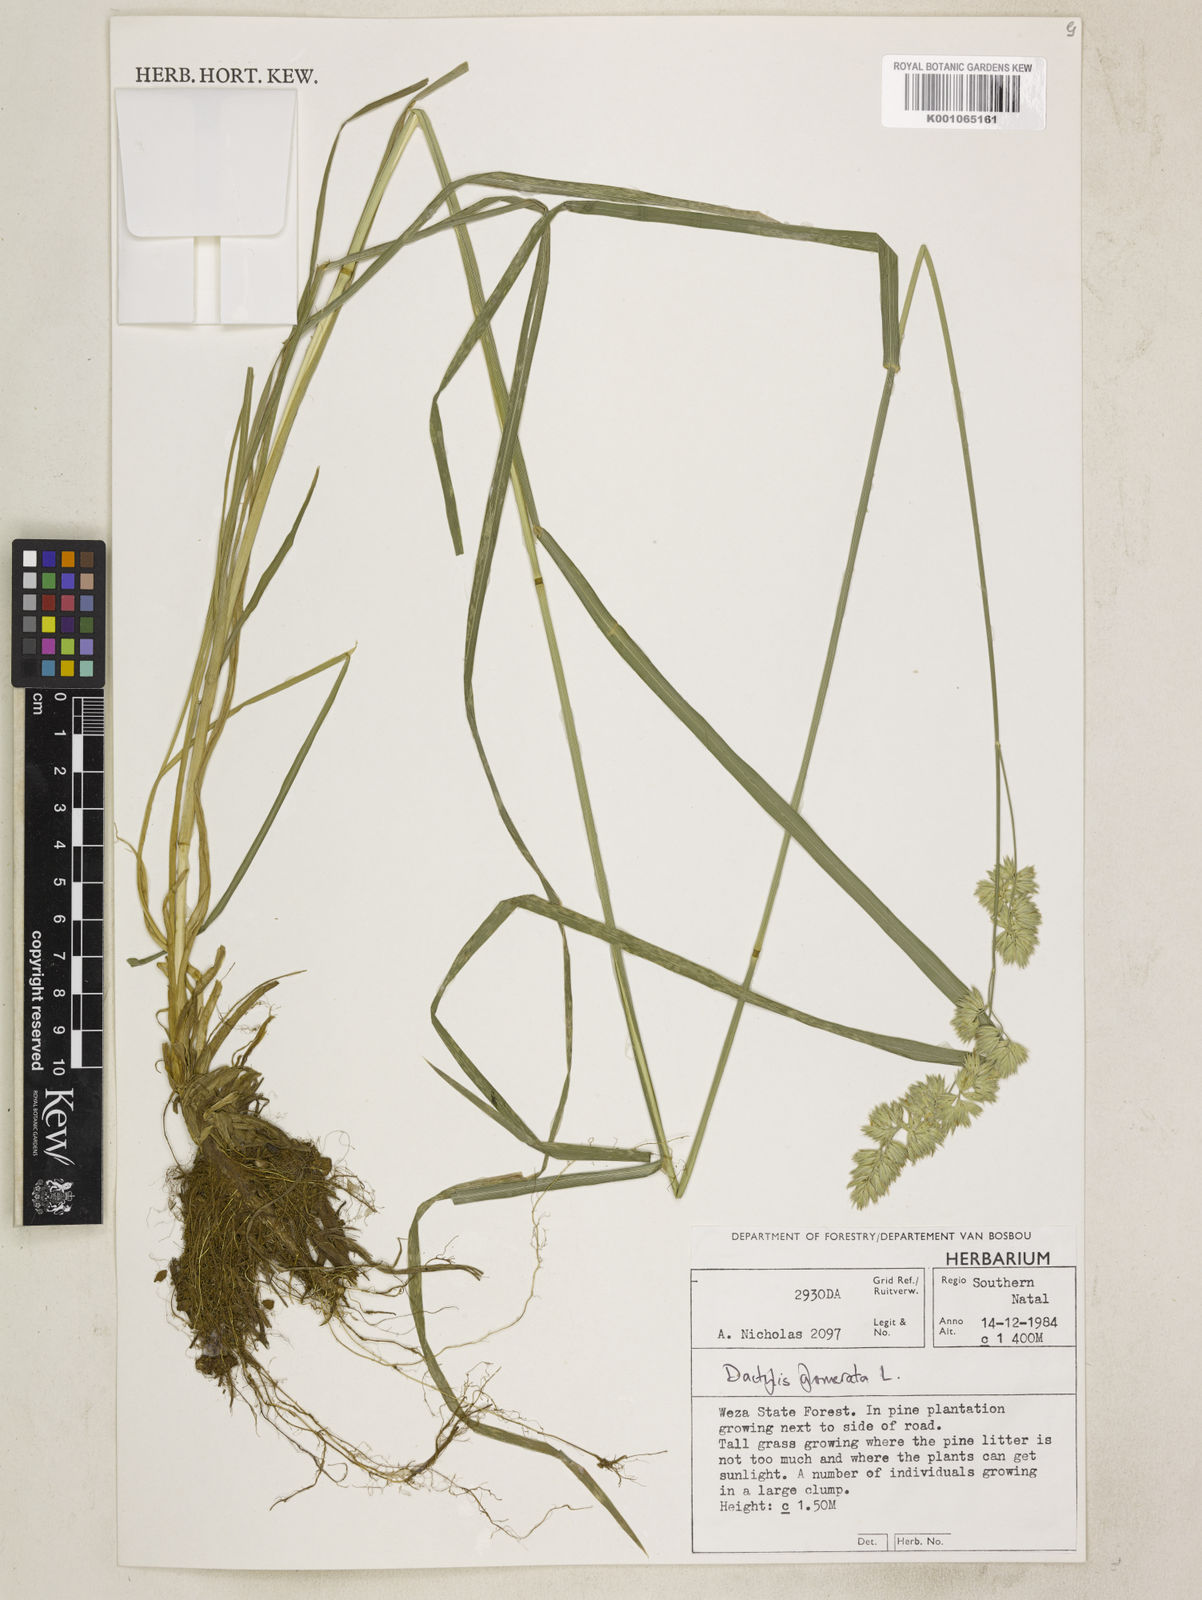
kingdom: Plantae
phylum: Tracheophyta
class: Liliopsida
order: Poales
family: Poaceae
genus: Dactylis
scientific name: Dactylis glomerata
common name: Orchardgrass
